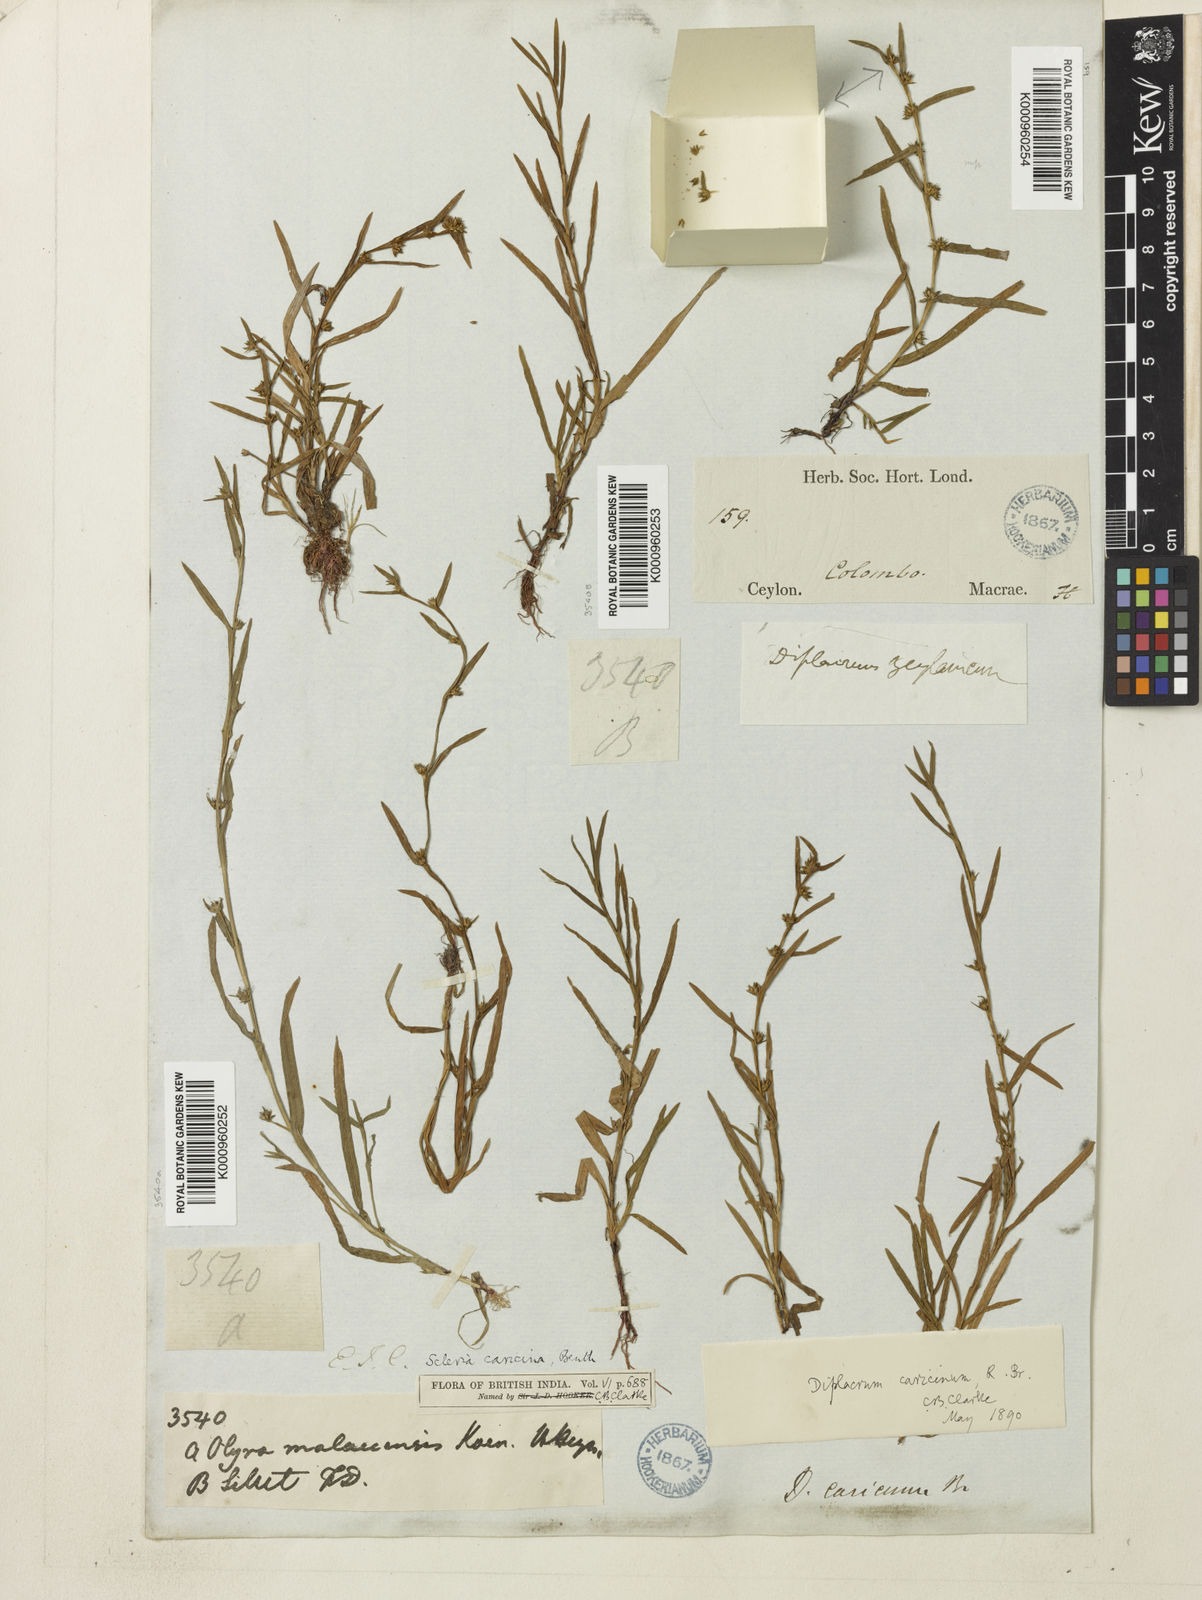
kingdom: Plantae
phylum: Tracheophyta
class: Liliopsida
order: Poales
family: Cyperaceae
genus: Diplacrum
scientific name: Diplacrum caricinum
